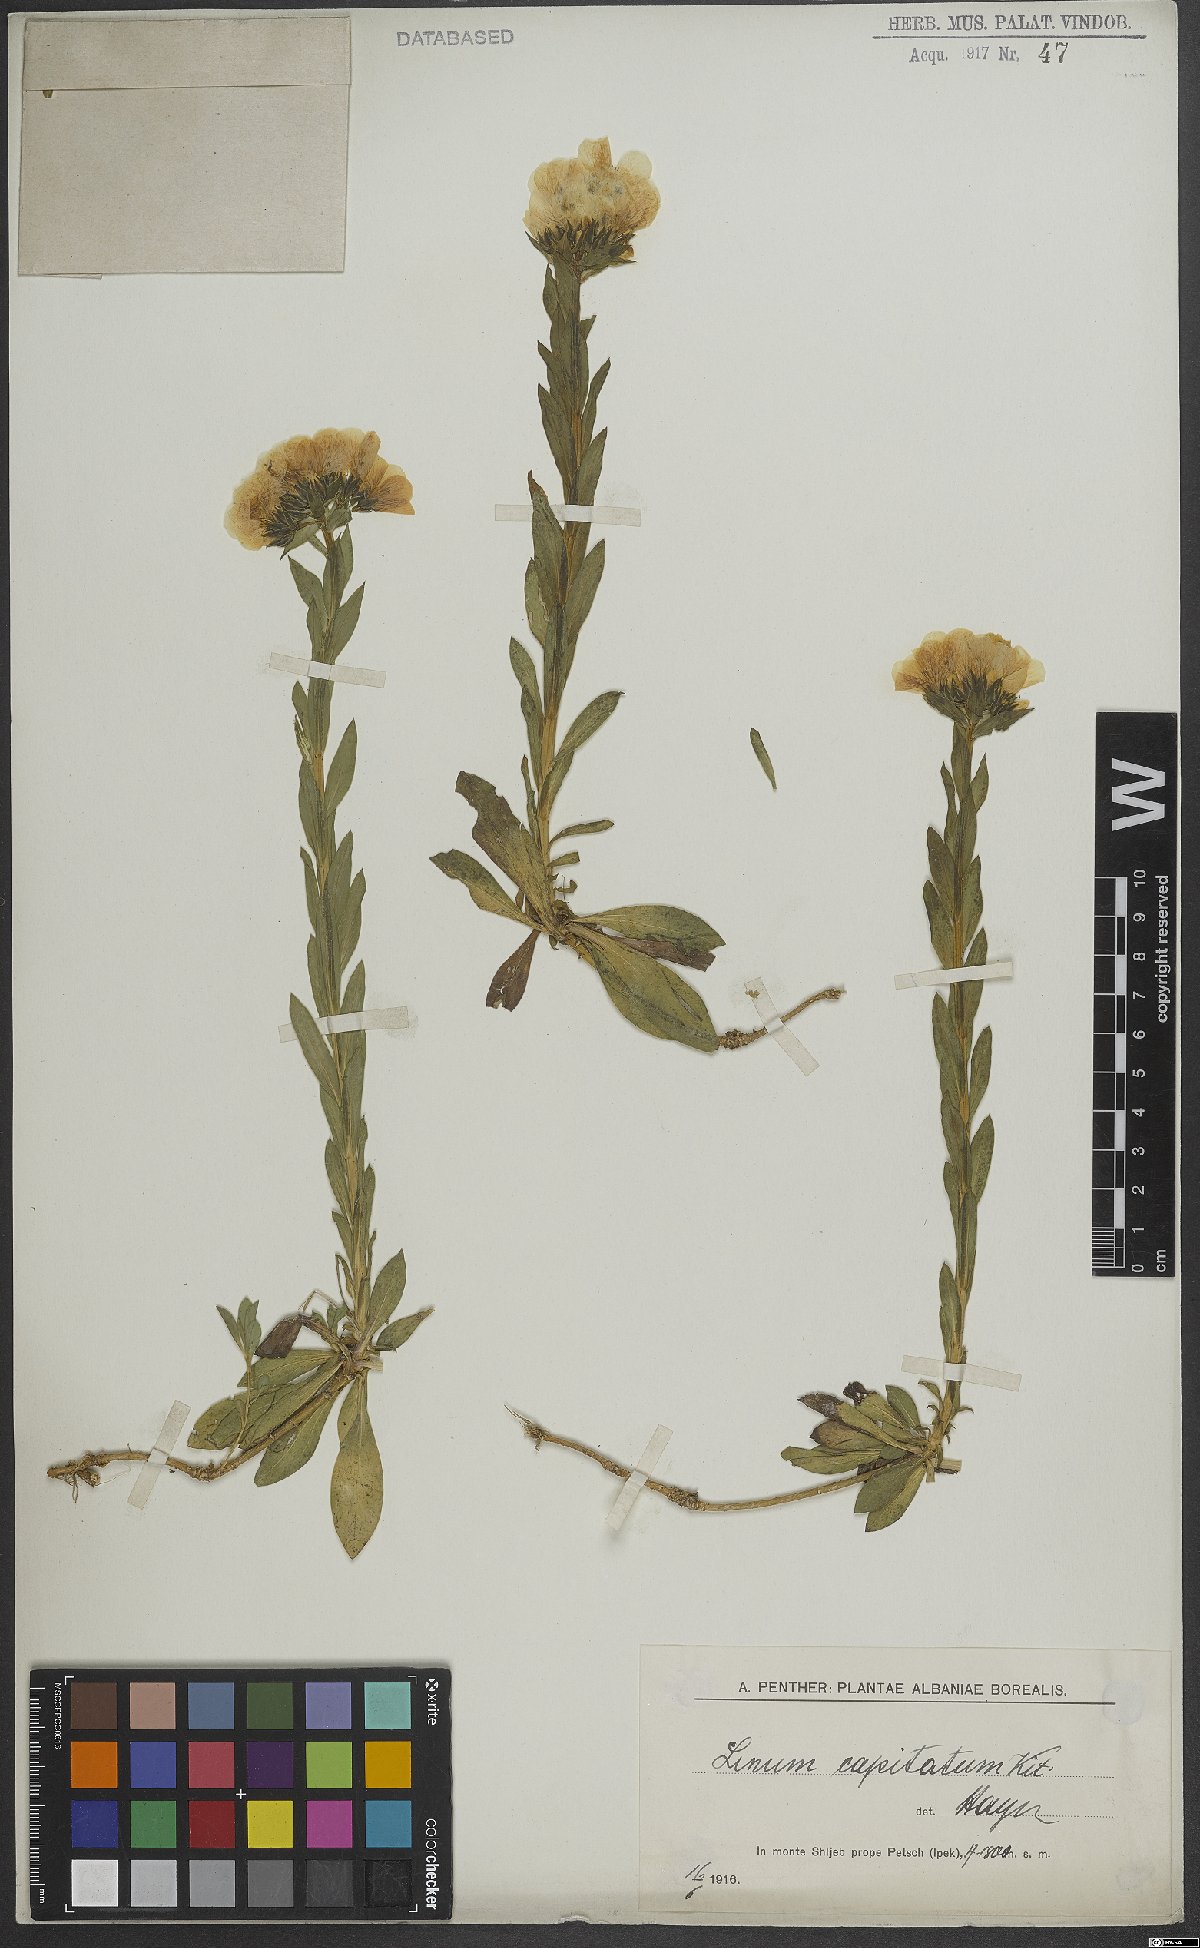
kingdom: Plantae
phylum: Tracheophyta
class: Magnoliopsida
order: Malpighiales
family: Linaceae
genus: Linum
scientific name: Linum capitatum
